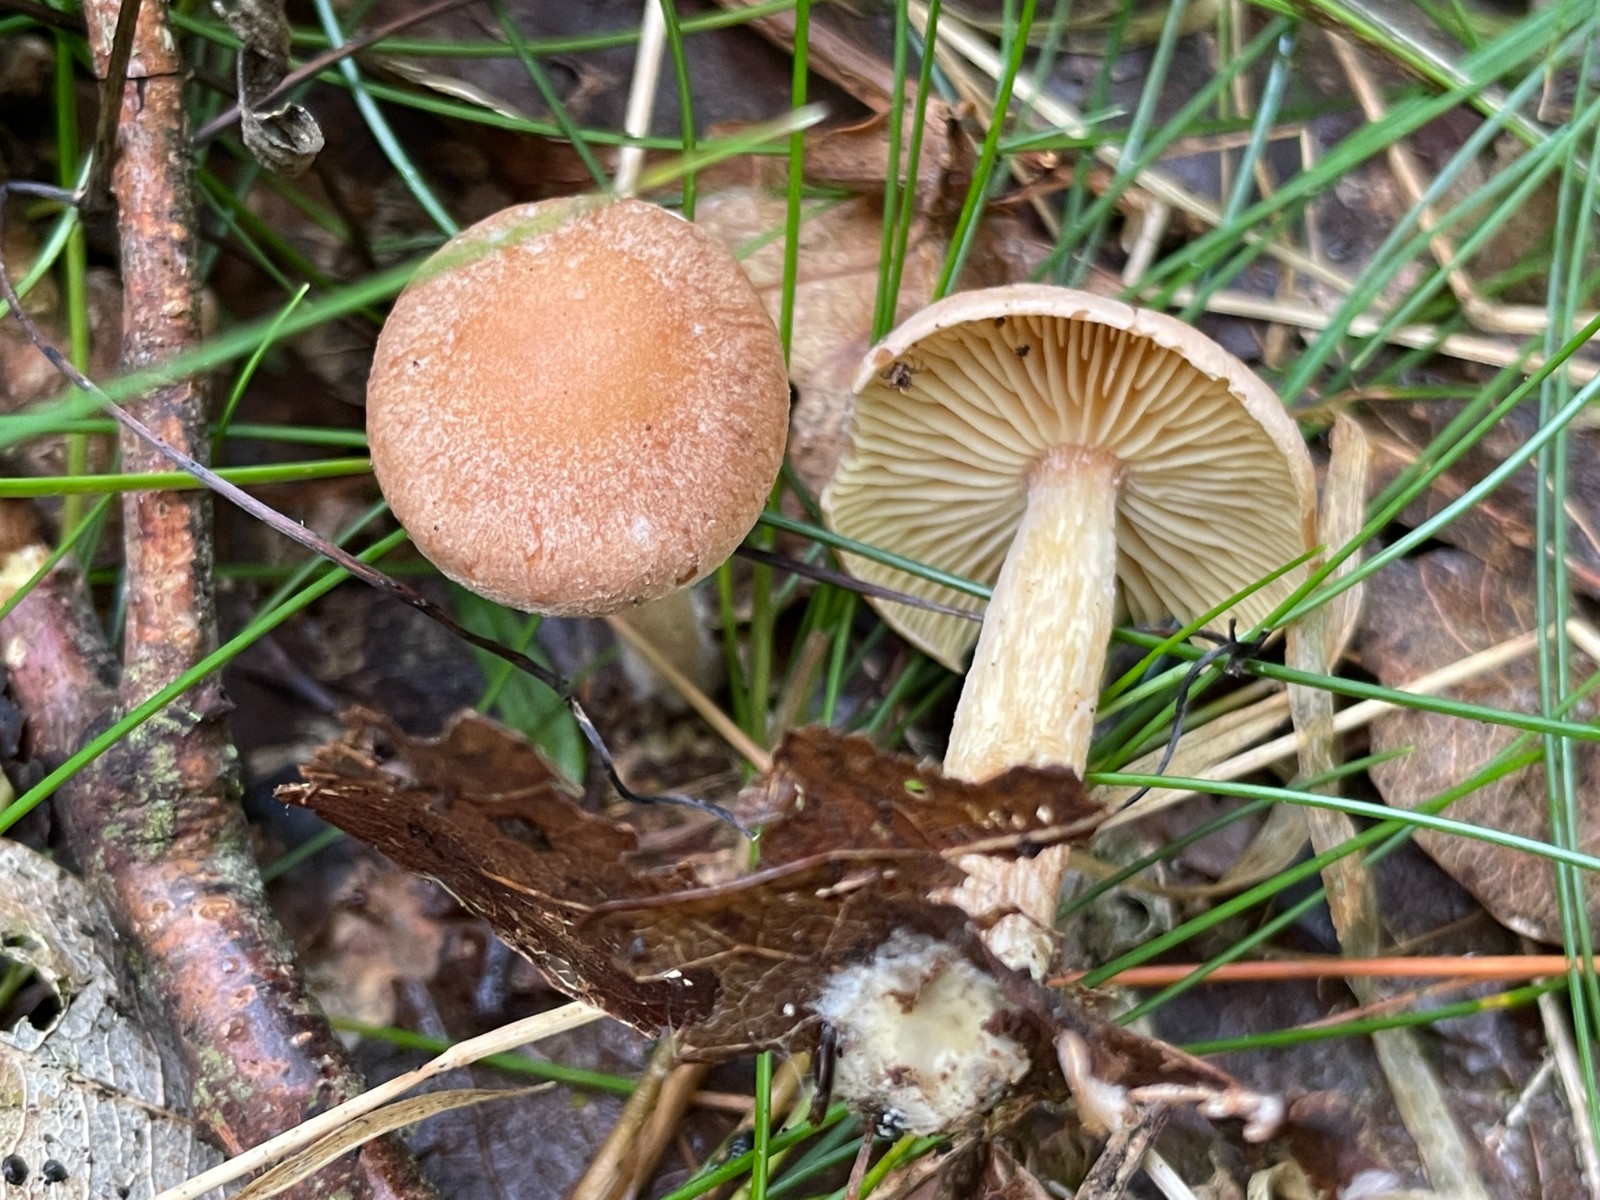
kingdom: Fungi
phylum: Basidiomycota
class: Agaricomycetes
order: Agaricales
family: Omphalotaceae
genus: Collybiopsis
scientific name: Collybiopsis peronata
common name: bestøvlet fladhat
